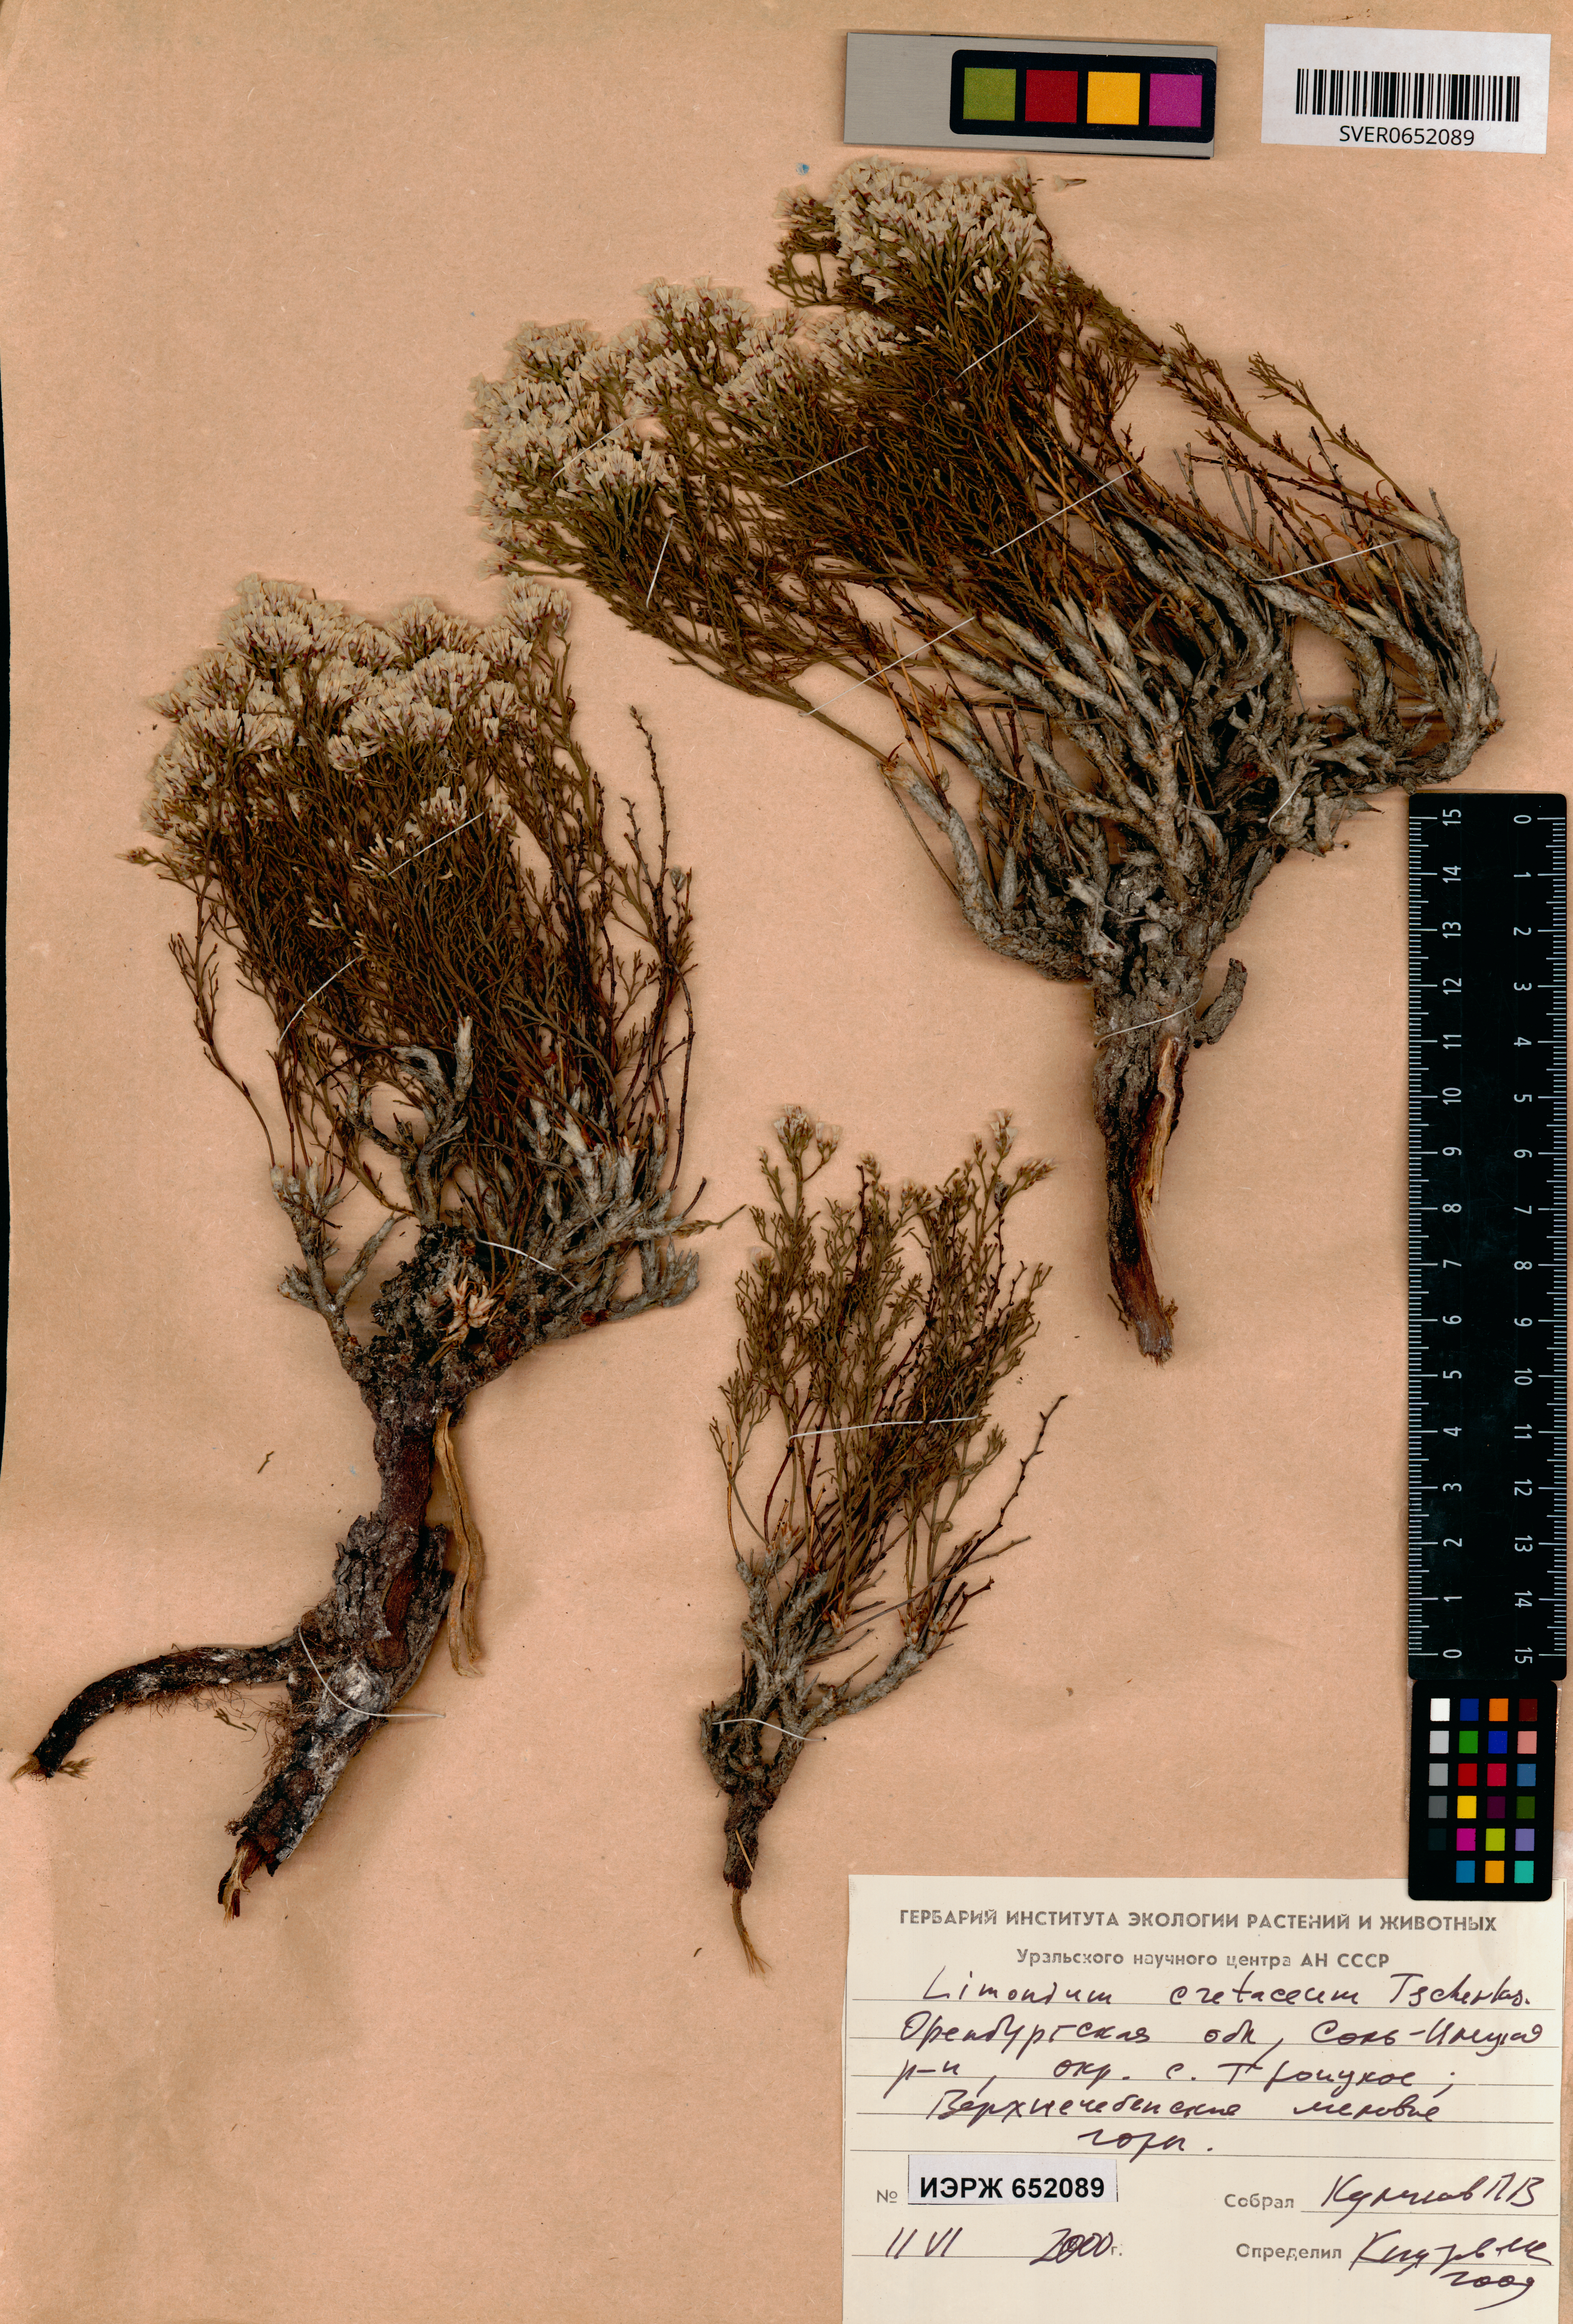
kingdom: Plantae
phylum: Tracheophyta
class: Magnoliopsida
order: Caryophyllales
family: Plumbaginaceae
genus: Limonium
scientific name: Limonium cretaceum
